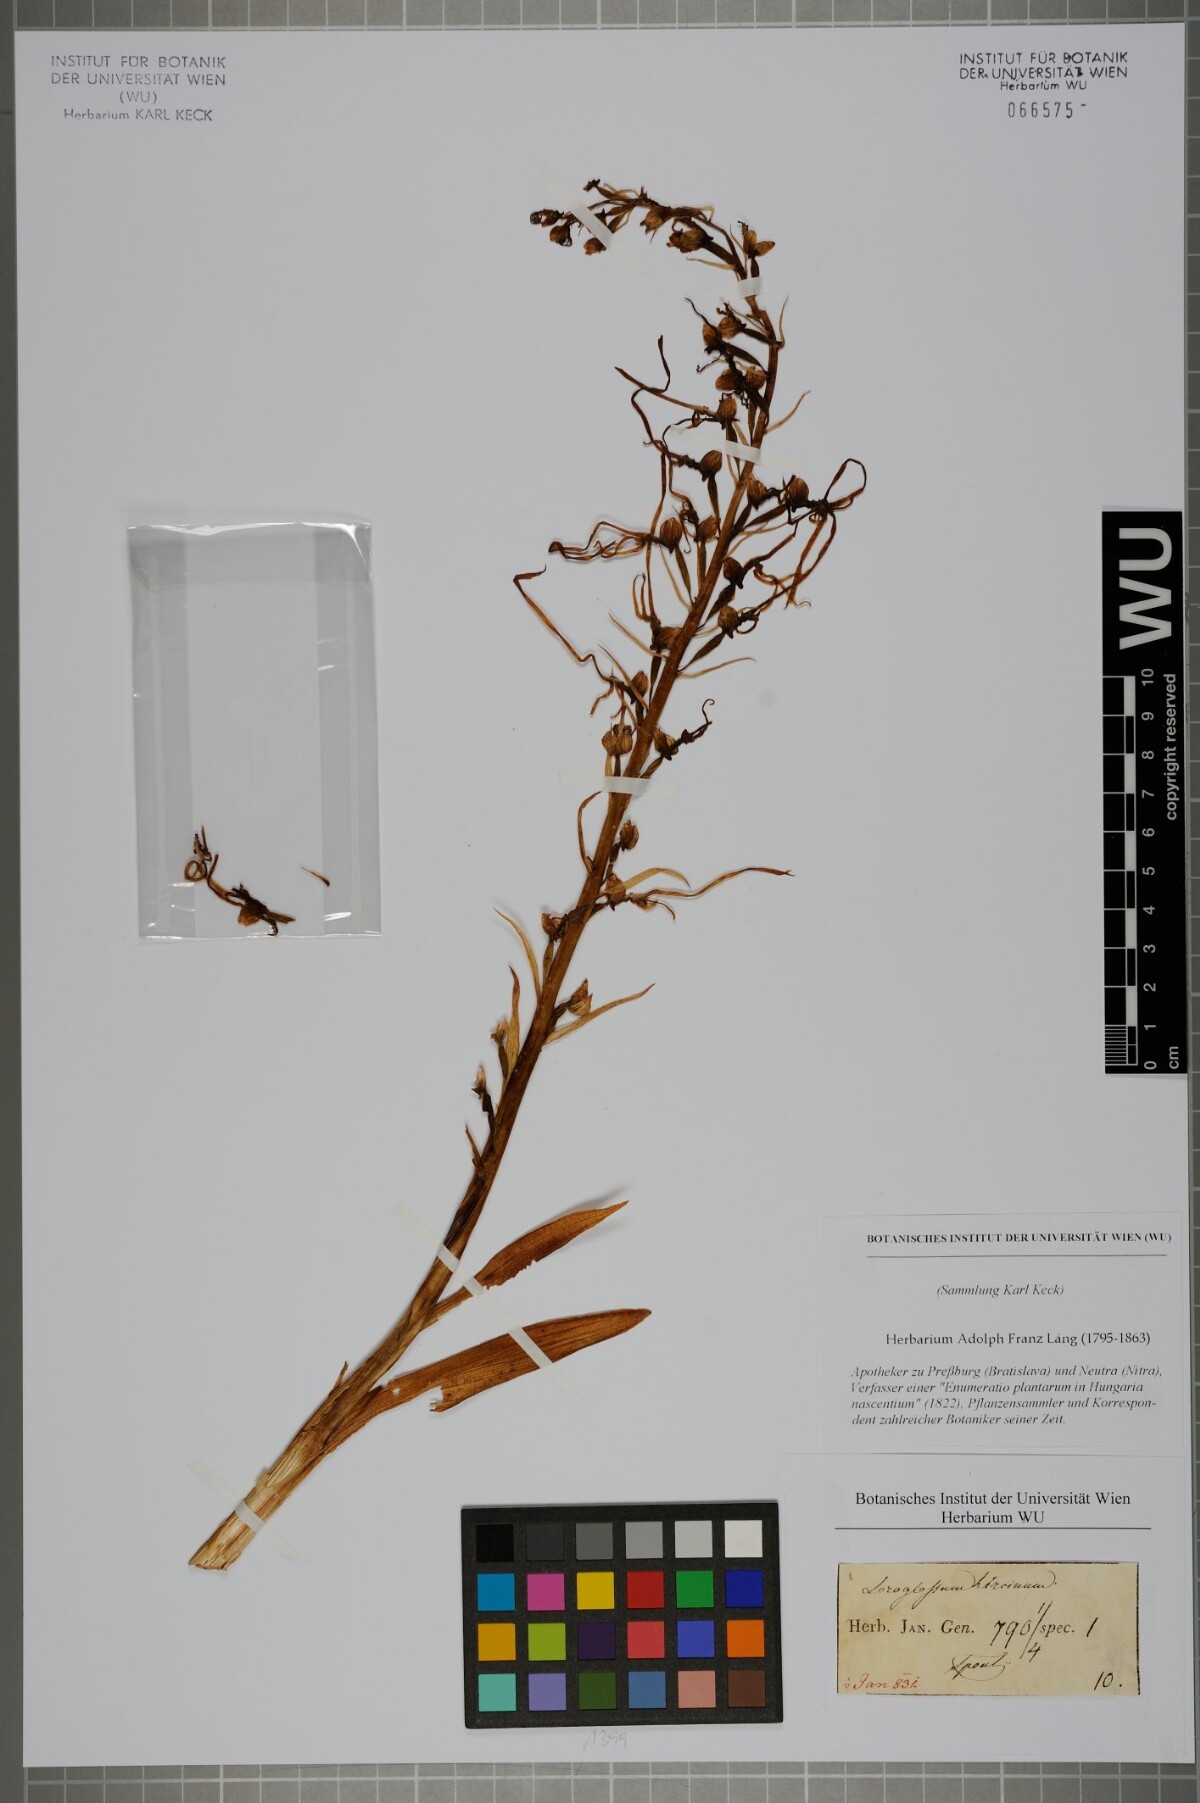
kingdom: Plantae
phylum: Tracheophyta
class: Liliopsida
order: Asparagales
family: Orchidaceae
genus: Himantoglossum
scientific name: Himantoglossum hircinum
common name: Lizard orchid
